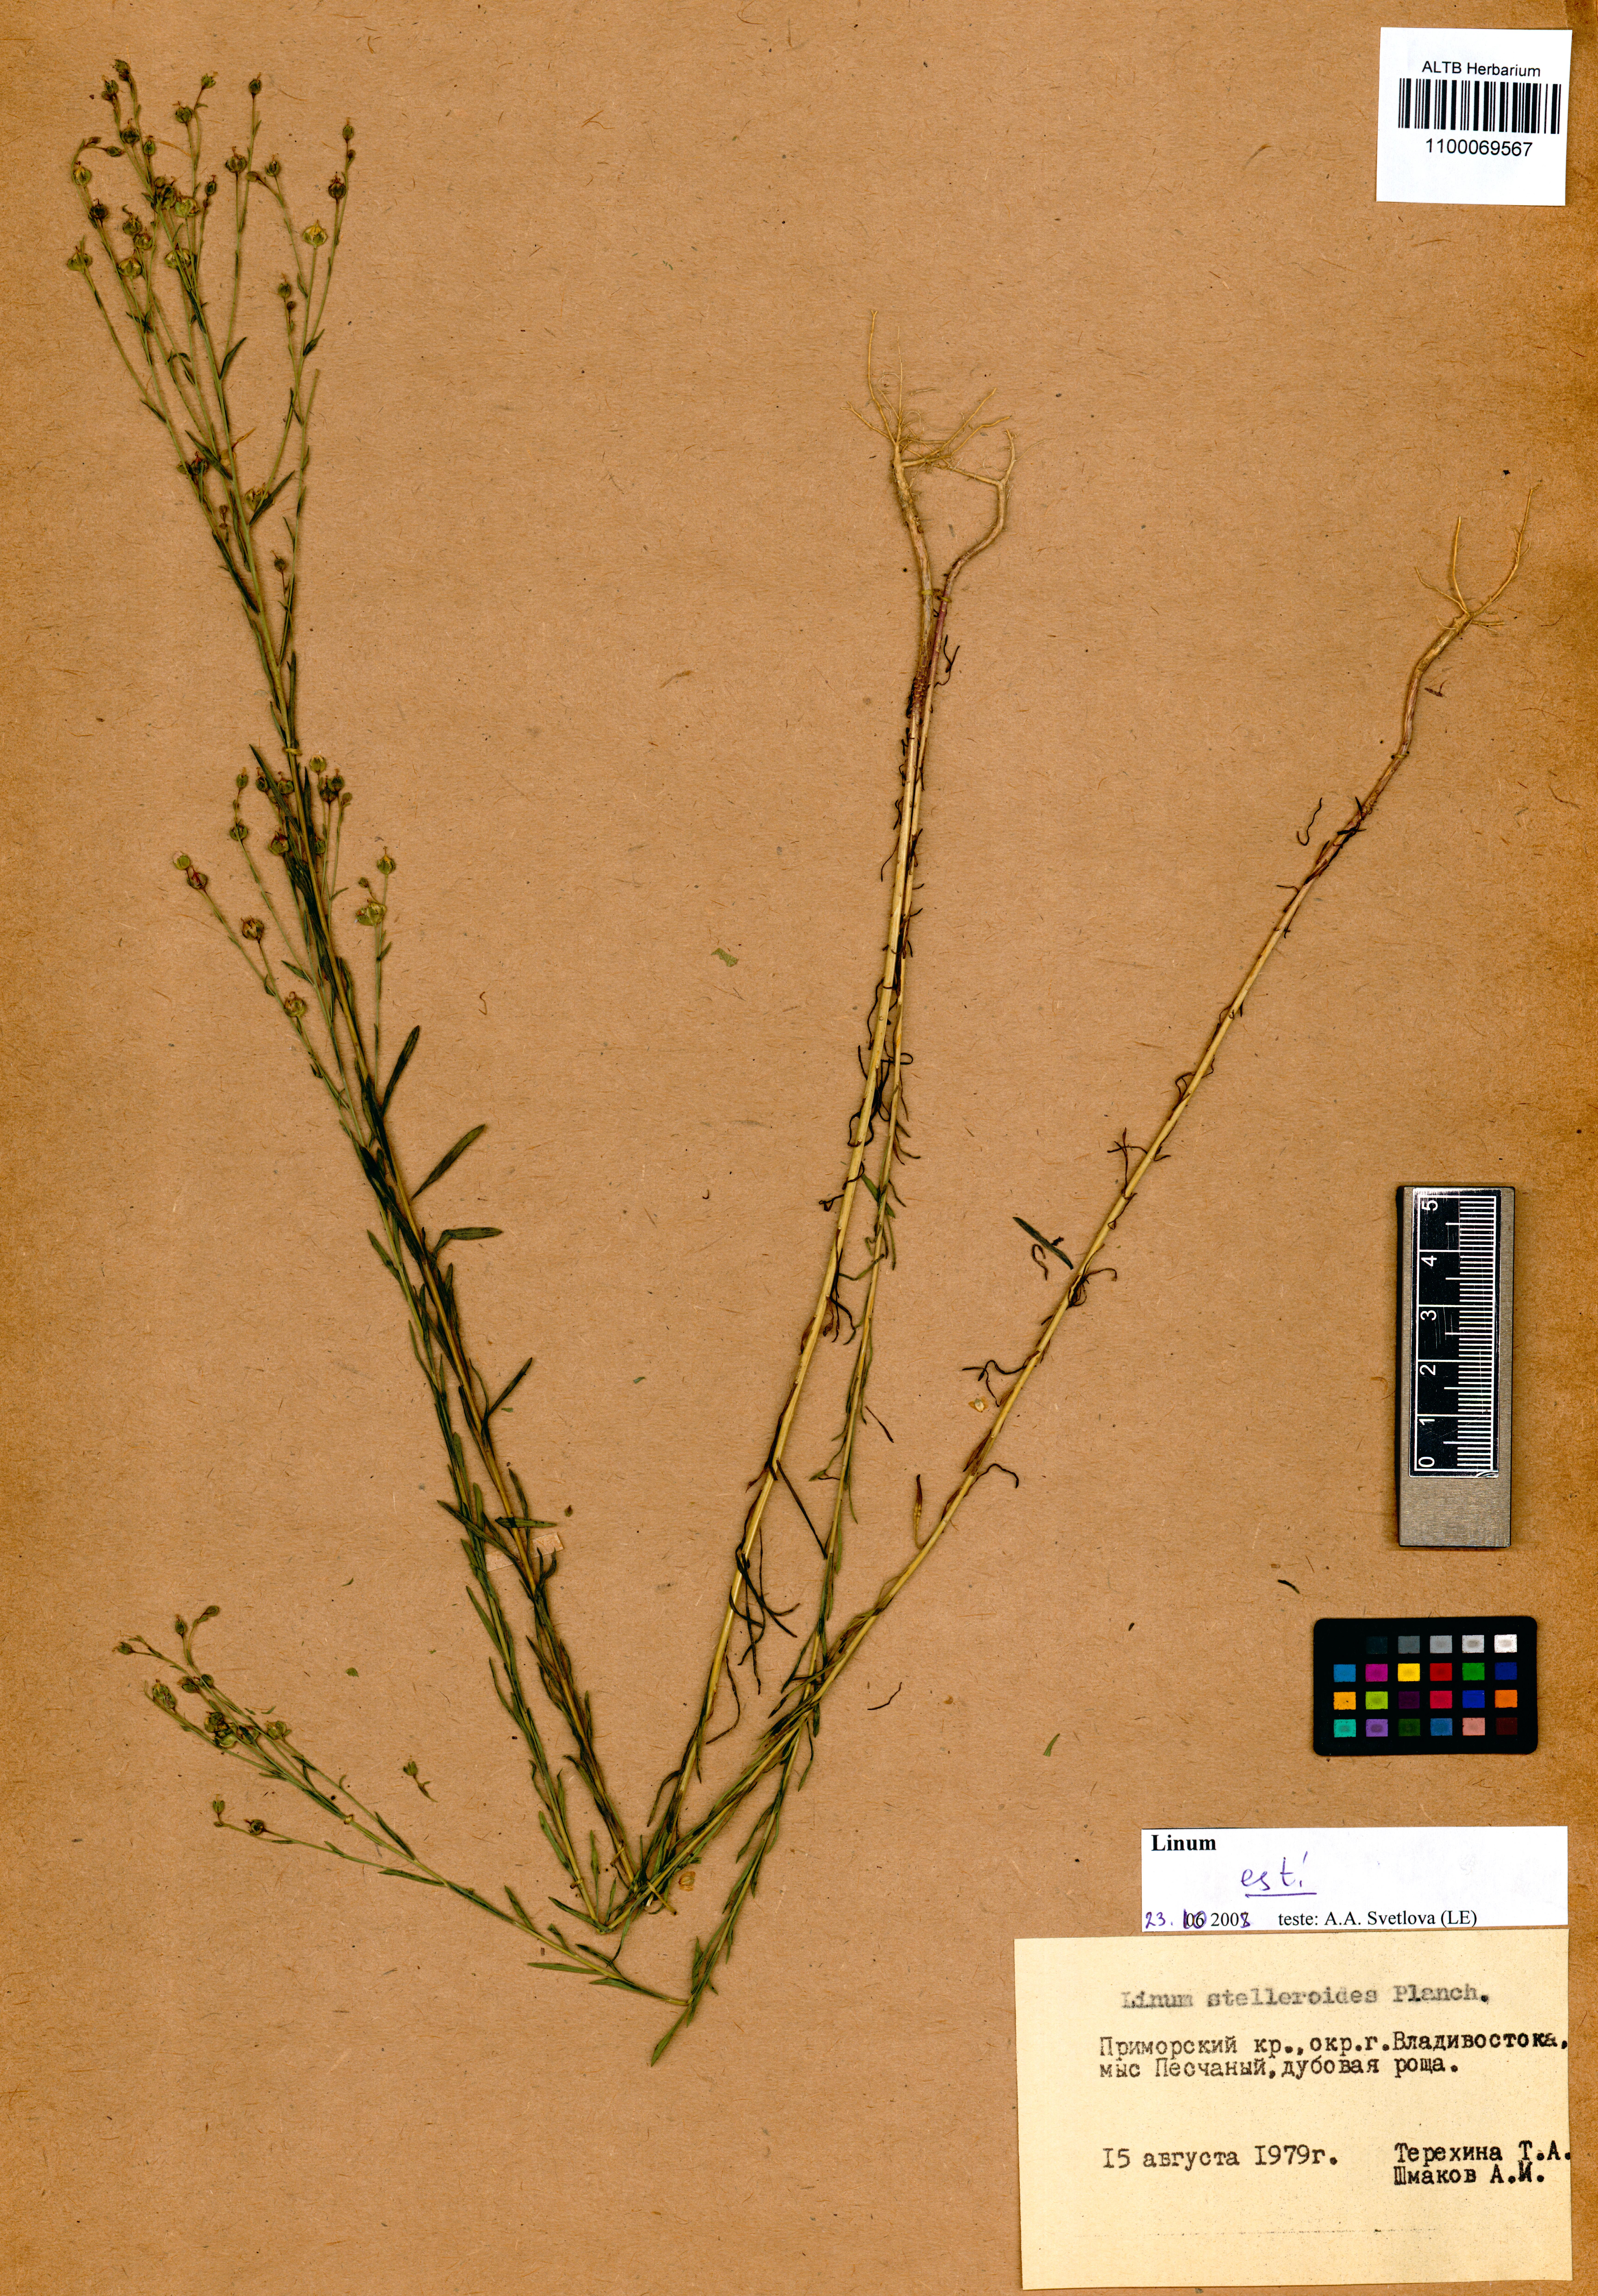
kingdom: Plantae
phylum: Tracheophyta
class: Magnoliopsida
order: Malpighiales
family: Linaceae
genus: Linum
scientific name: Linum stelleroides
